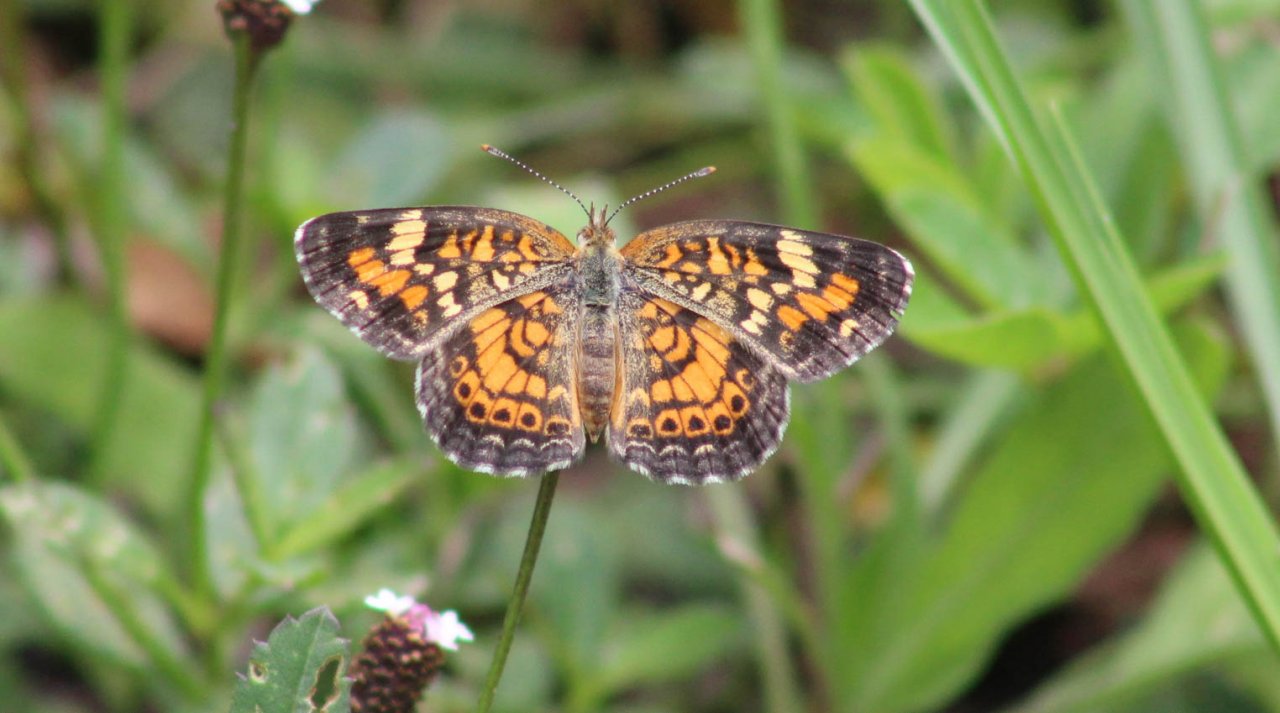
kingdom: Animalia
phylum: Arthropoda
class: Insecta
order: Lepidoptera
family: Nymphalidae
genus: Phyciodes
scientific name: Phyciodes phaon
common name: Phaon Crescent
